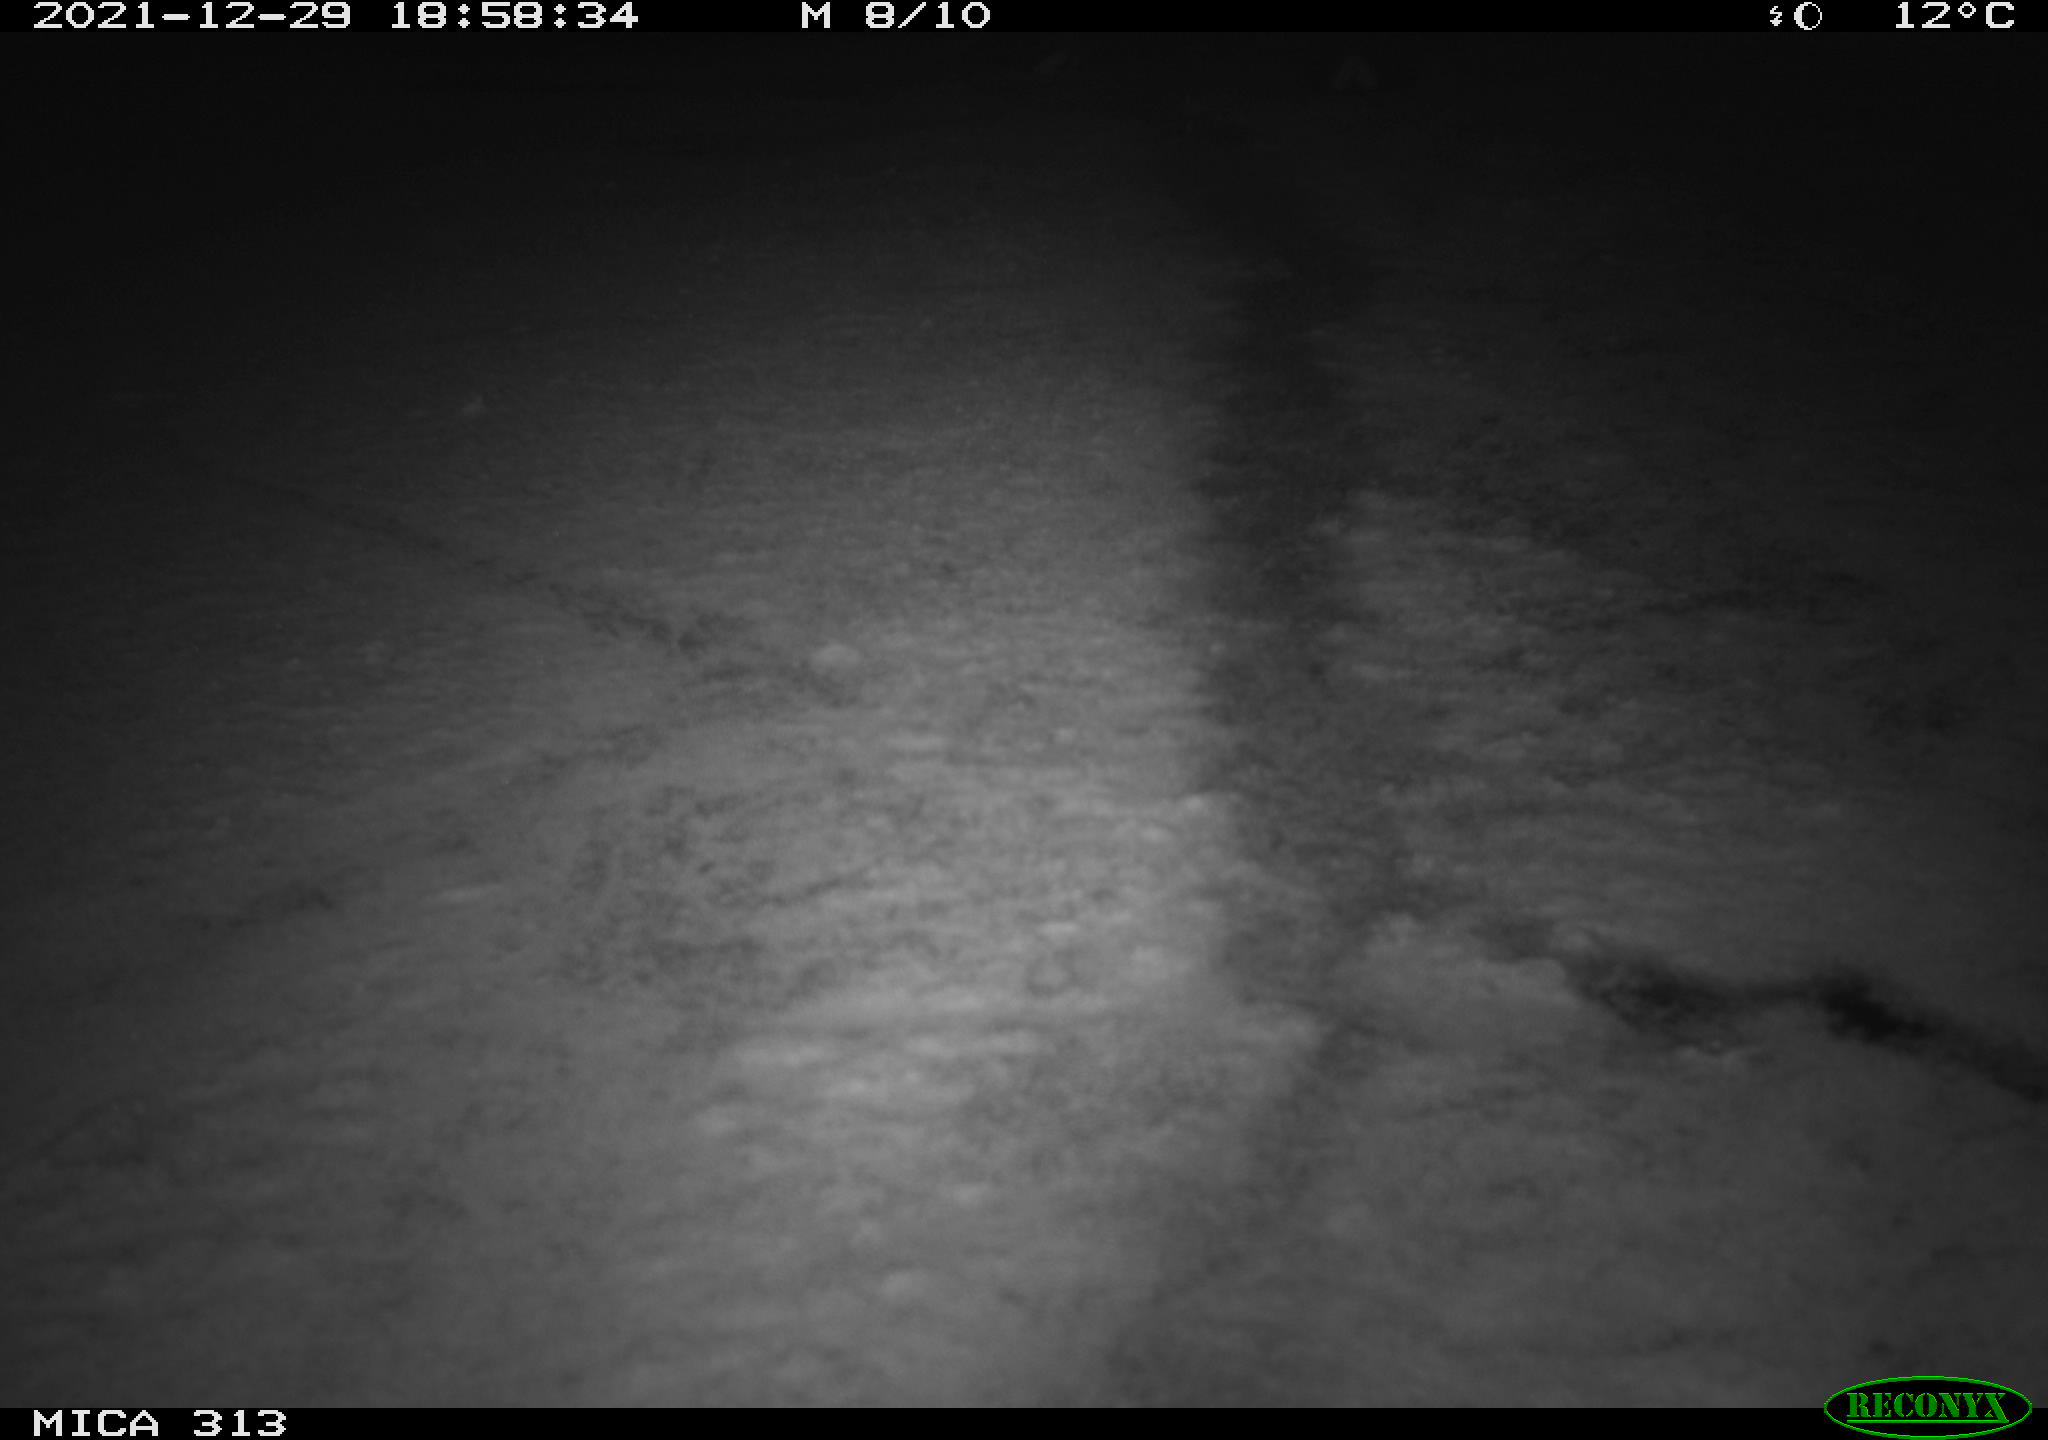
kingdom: Animalia
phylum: Chordata
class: Aves
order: Gruiformes
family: Rallidae
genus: Gallinula
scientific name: Gallinula chloropus
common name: Common moorhen
